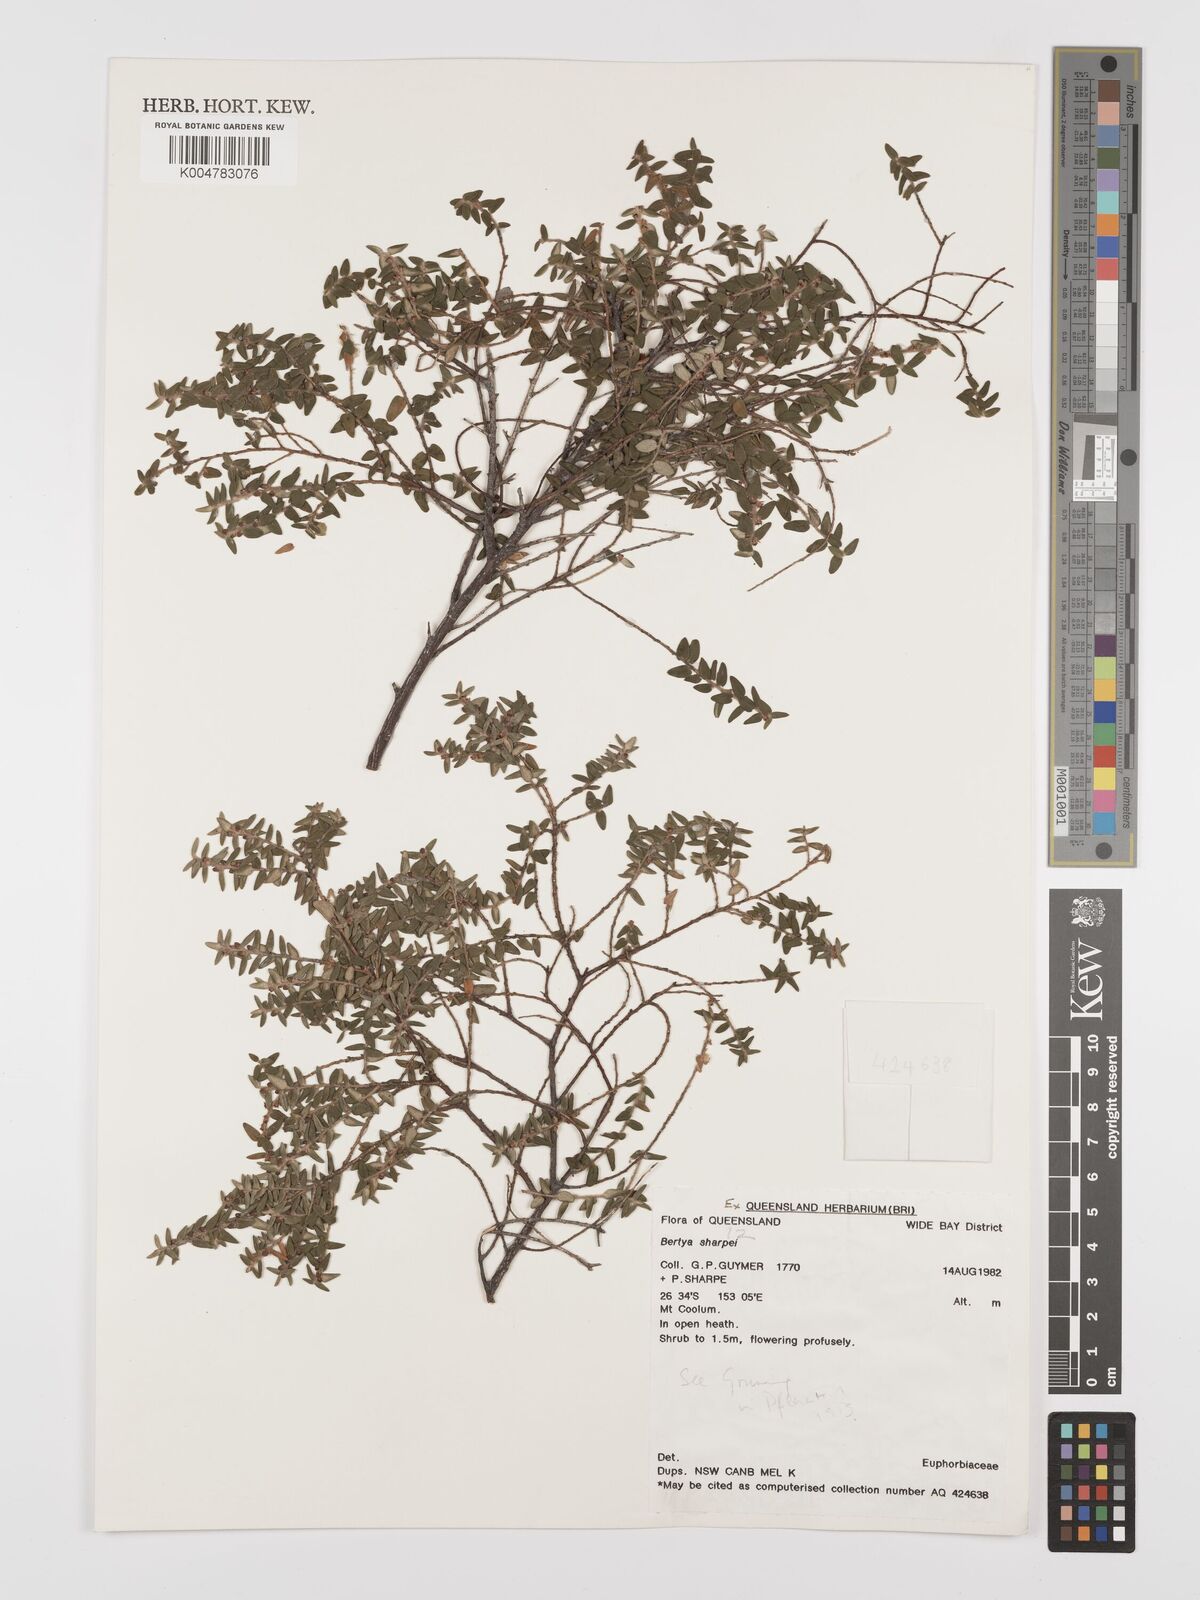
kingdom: Plantae
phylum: Tracheophyta
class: Magnoliopsida
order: Malpighiales
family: Euphorbiaceae
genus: Bertya
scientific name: Bertya sharpeana
